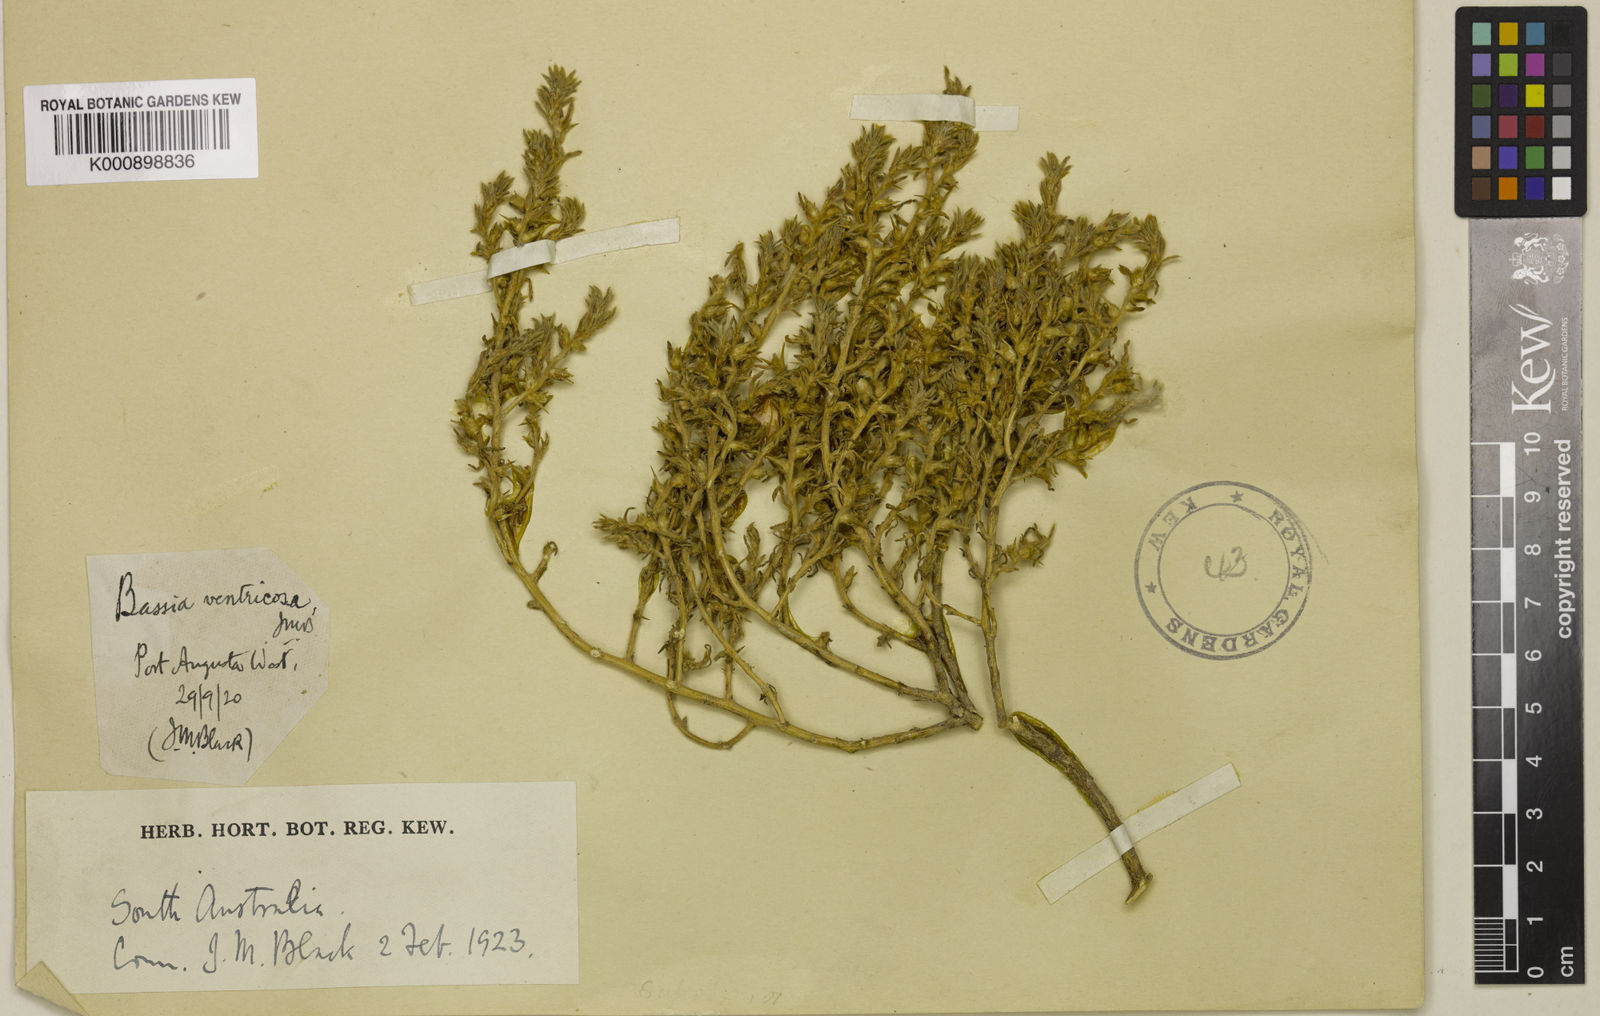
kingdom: Plantae
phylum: Tracheophyta
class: Magnoliopsida
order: Caryophyllales
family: Amaranthaceae
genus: Sclerolaena
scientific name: Sclerolaena ventricosa
